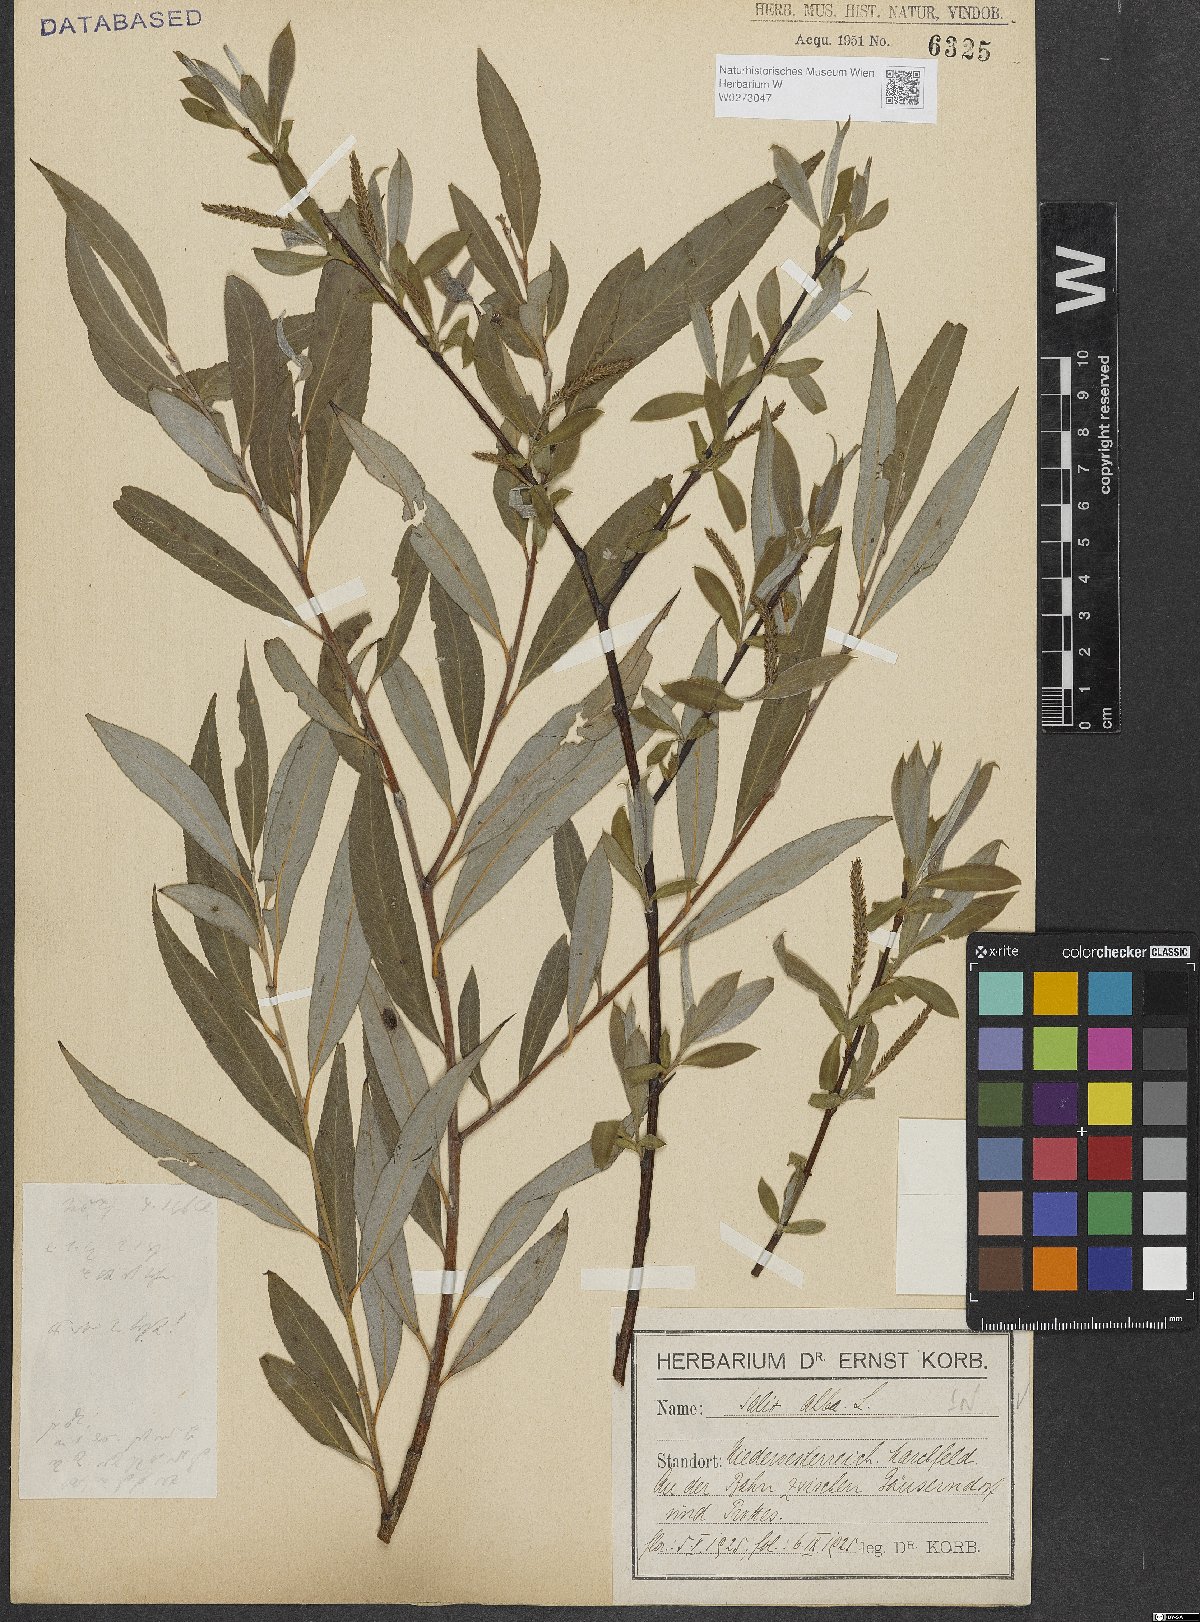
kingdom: Plantae
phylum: Tracheophyta
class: Magnoliopsida
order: Malpighiales
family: Salicaceae
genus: Salix
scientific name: Salix alba
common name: White willow
